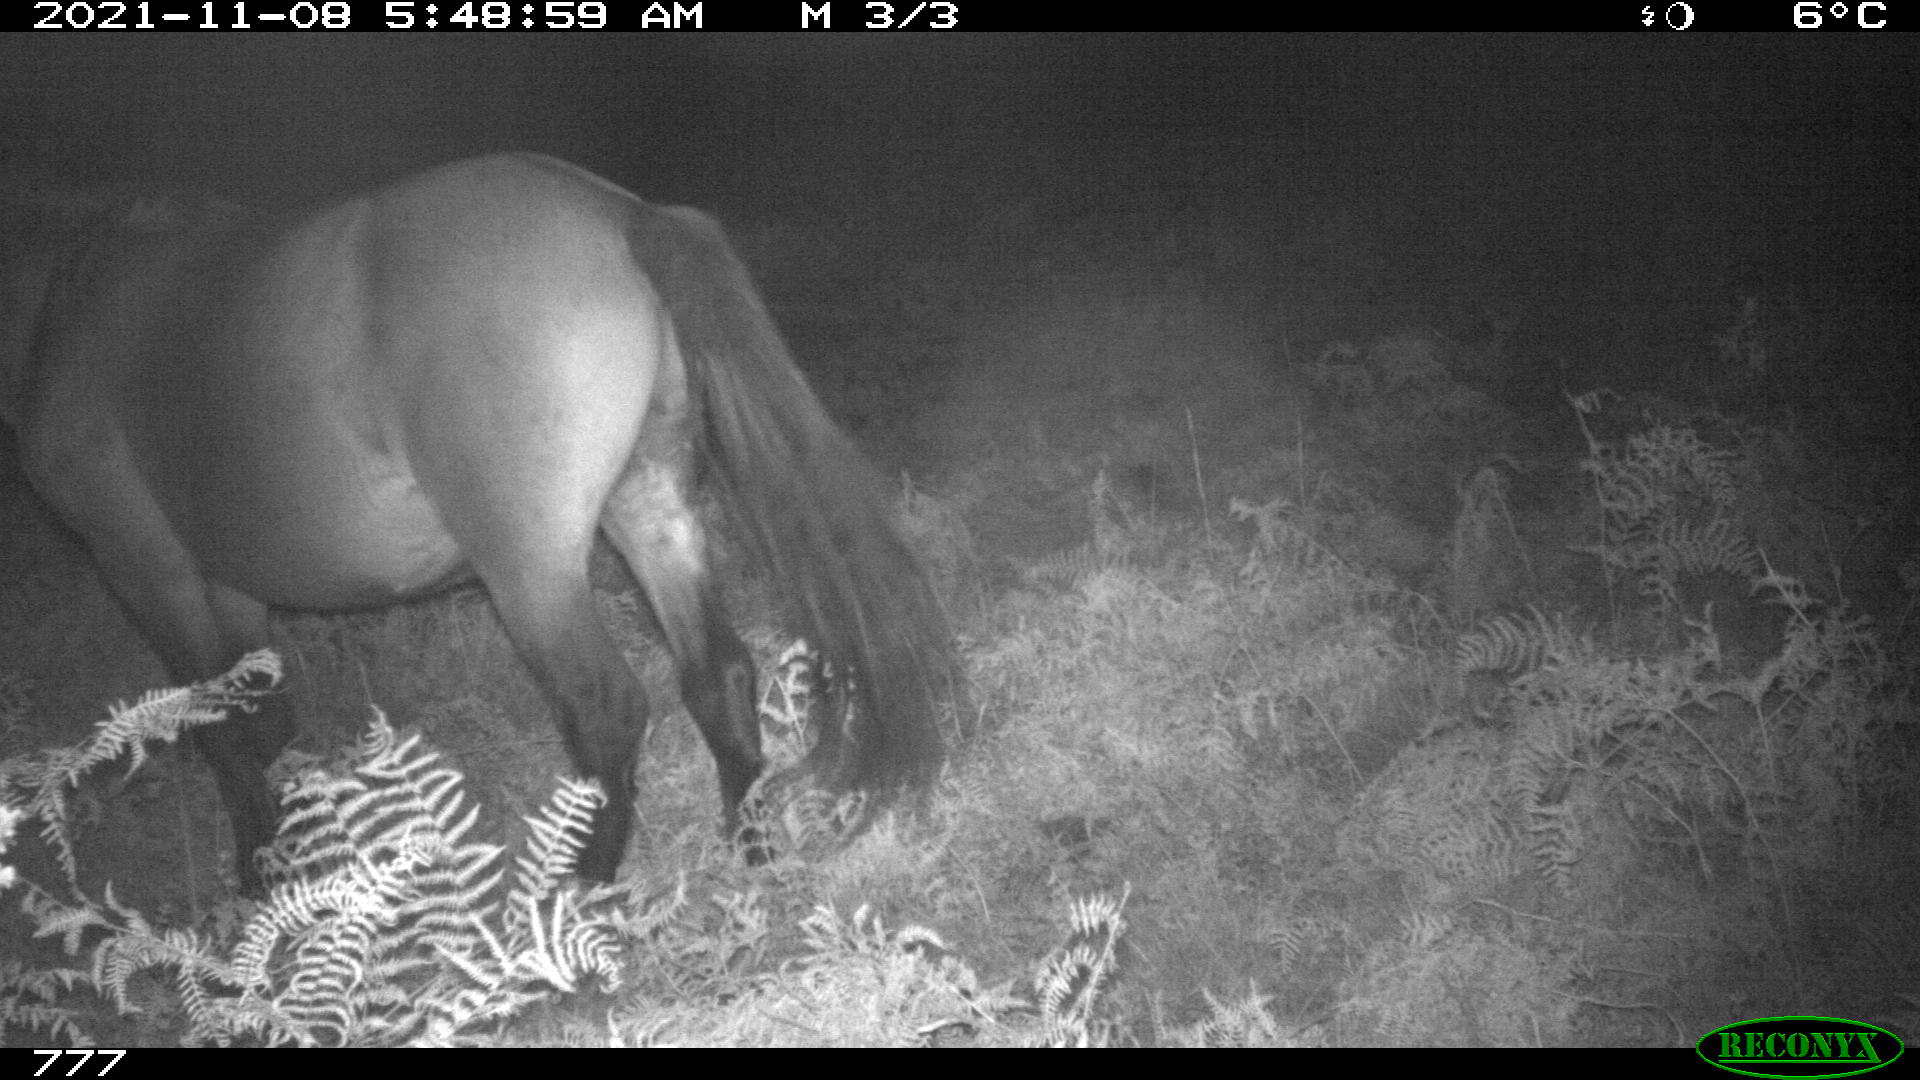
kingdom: Animalia
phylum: Chordata
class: Mammalia
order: Perissodactyla
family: Equidae
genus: Equus
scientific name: Equus caballus
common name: Horse
